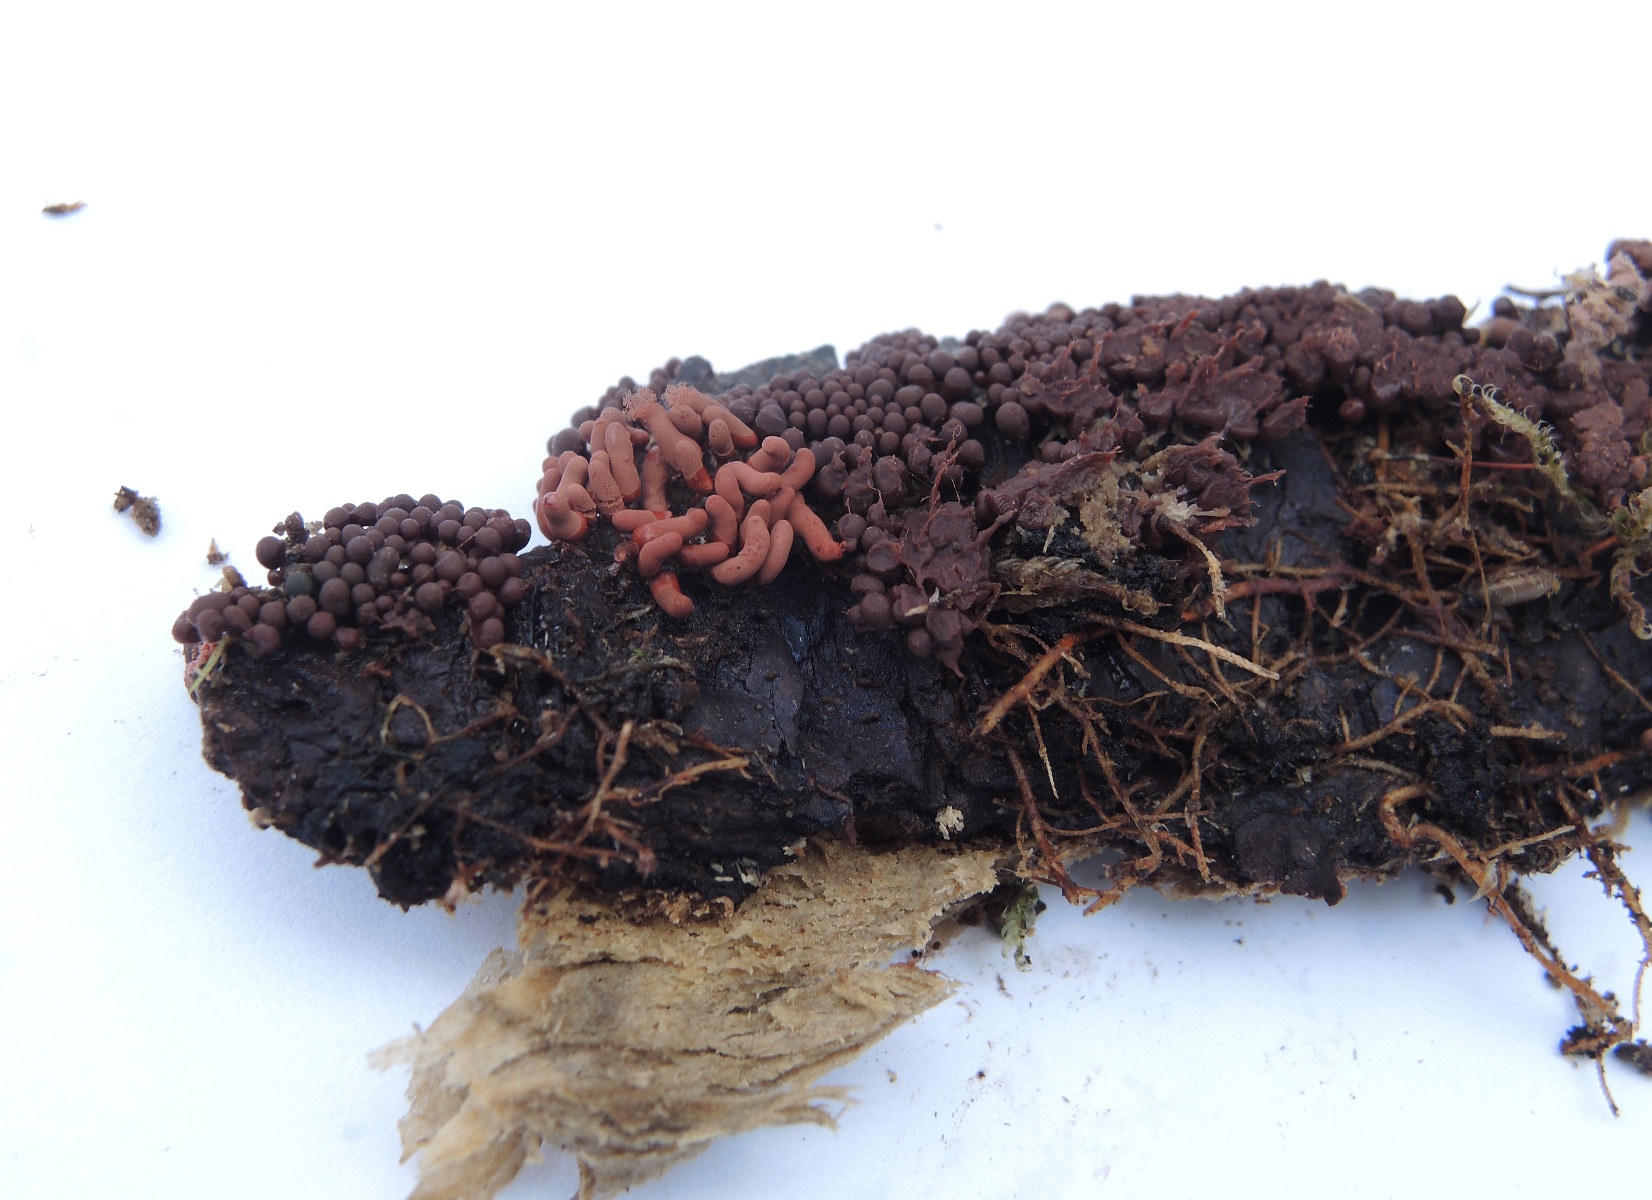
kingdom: Protozoa
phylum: Mycetozoa
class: Myxomycetes
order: Trichiales
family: Arcyriaceae
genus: Arcyria
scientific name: Arcyria affinis
